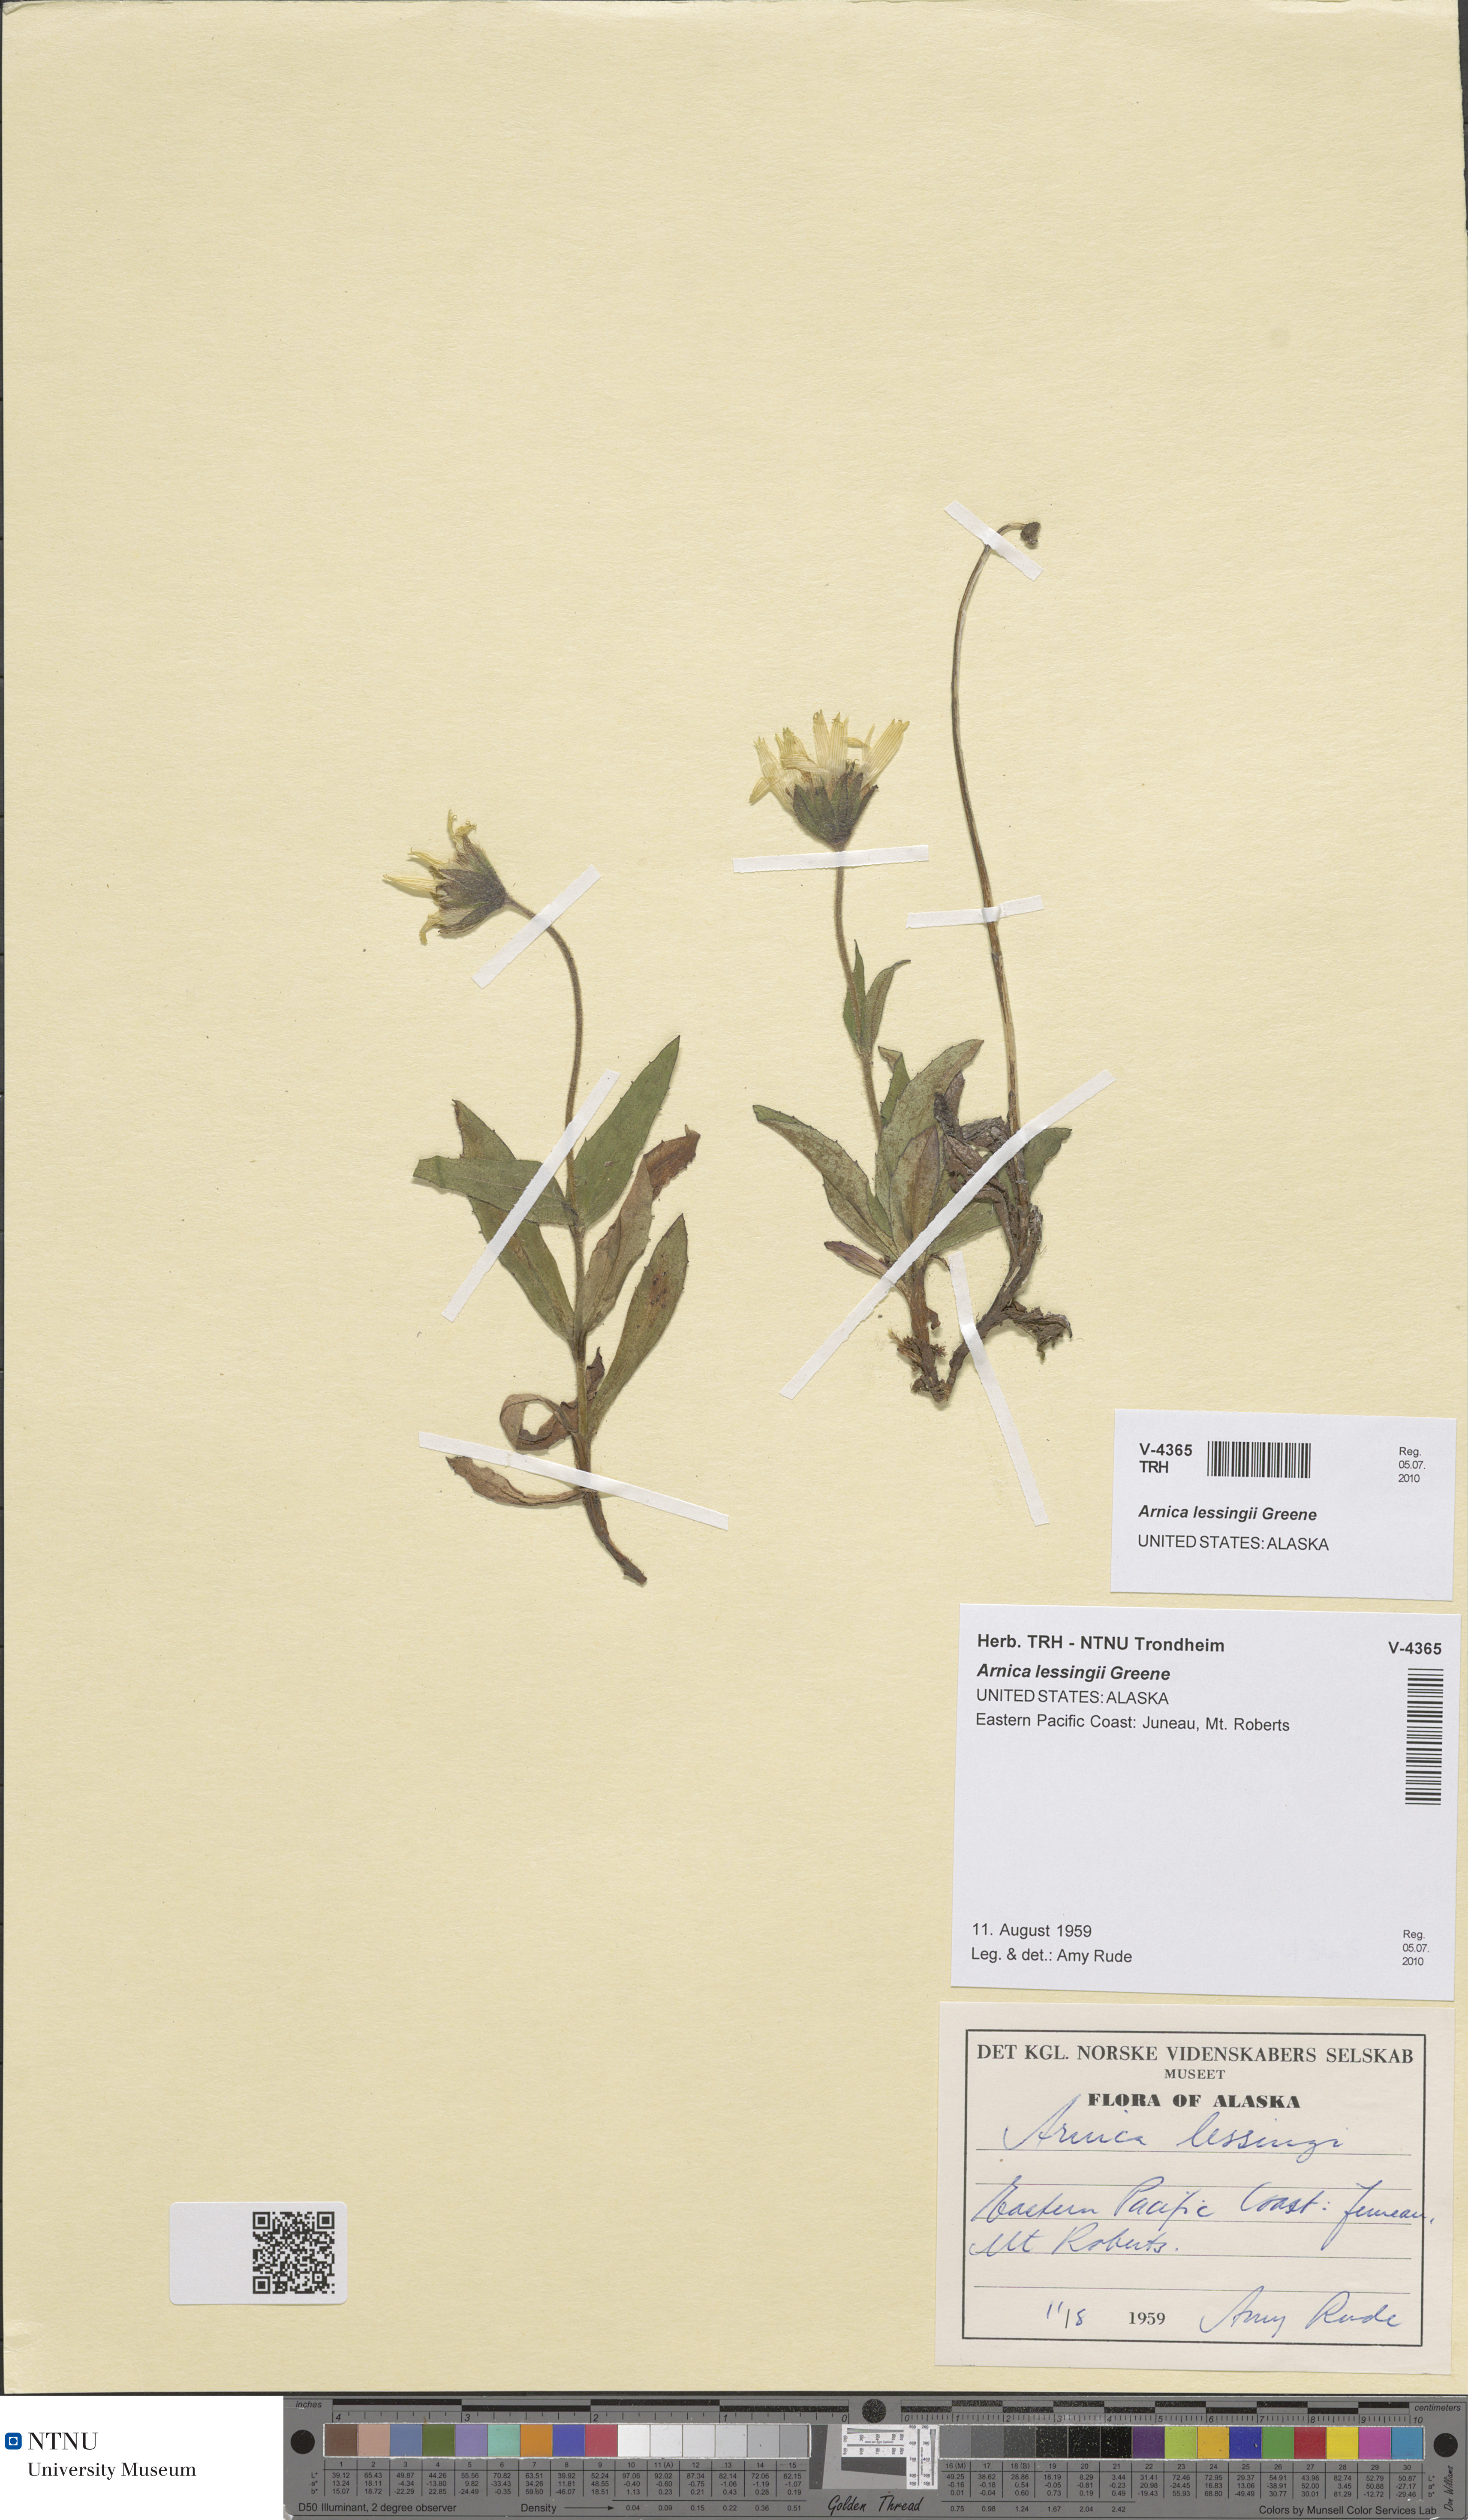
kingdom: Plantae
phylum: Tracheophyta
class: Magnoliopsida
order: Asterales
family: Asteraceae
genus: Arnica
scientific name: Arnica lessingii
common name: Nodding arnica
